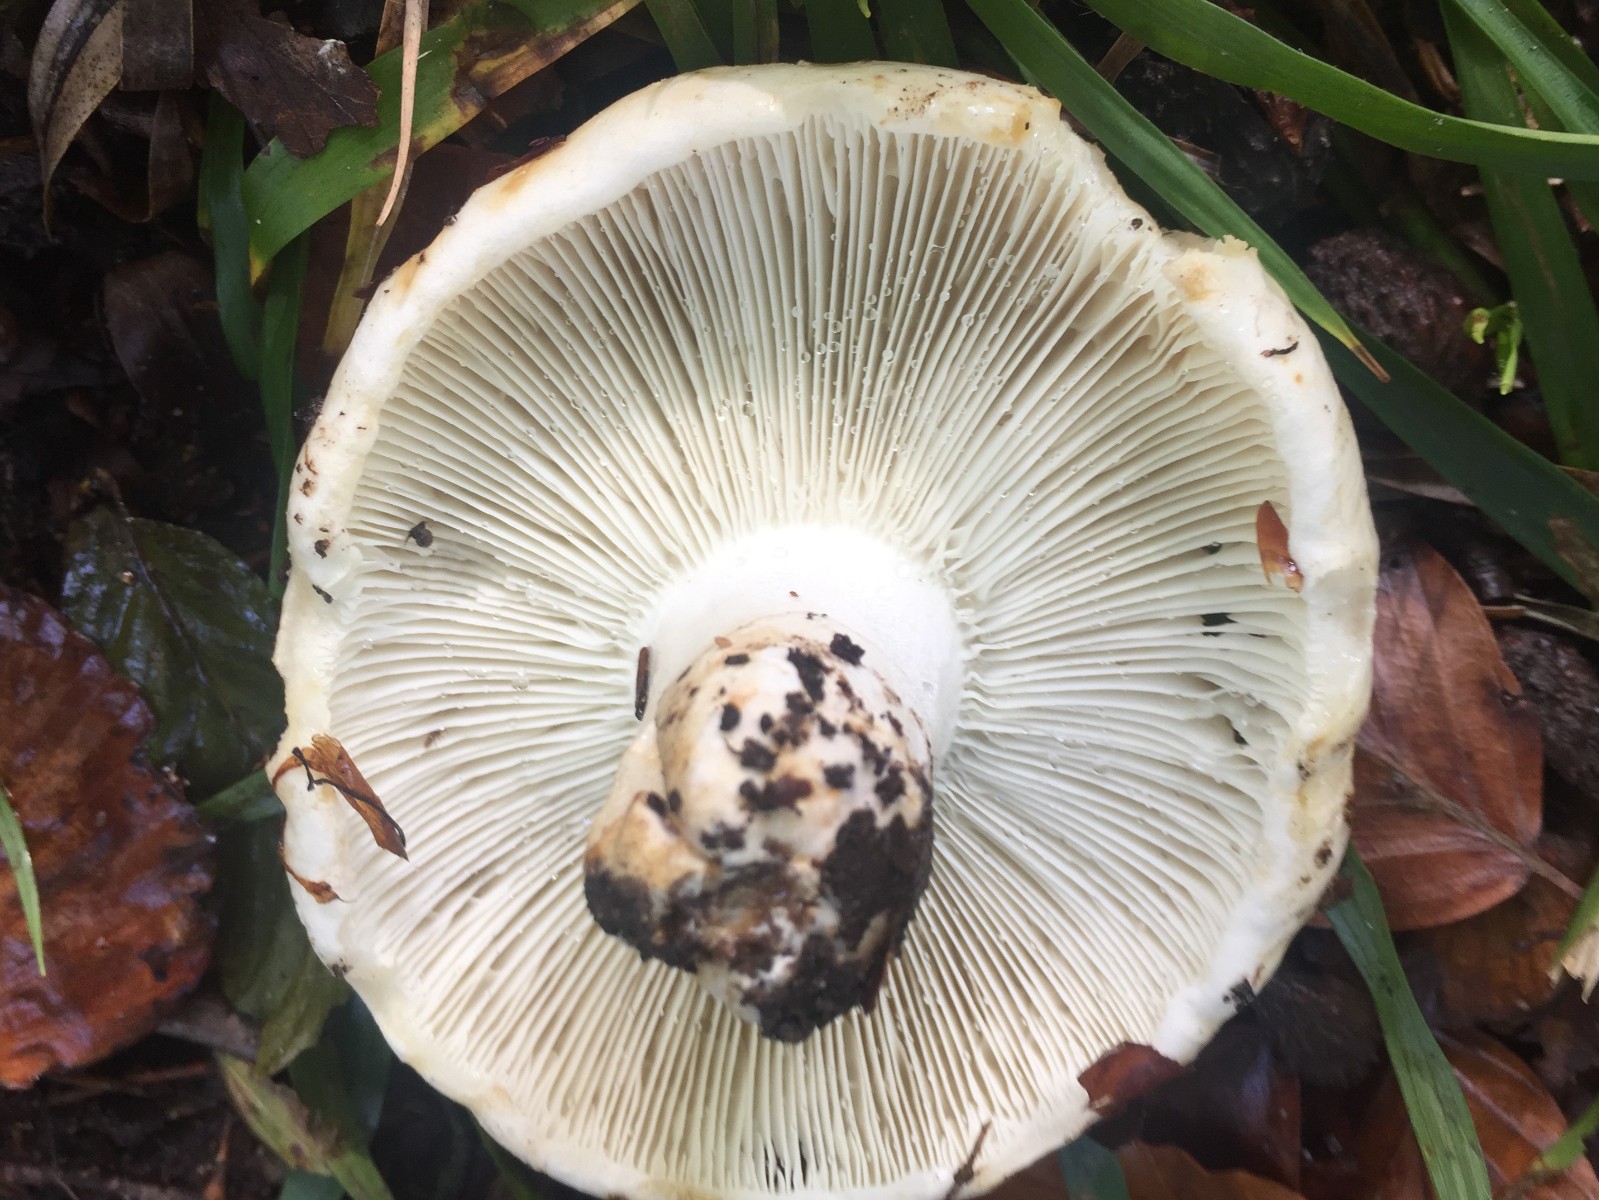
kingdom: Fungi
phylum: Basidiomycota
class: Agaricomycetes
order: Russulales
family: Russulaceae
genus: Russula
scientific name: Russula chloroides
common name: grønhalset tragt-skørhat
